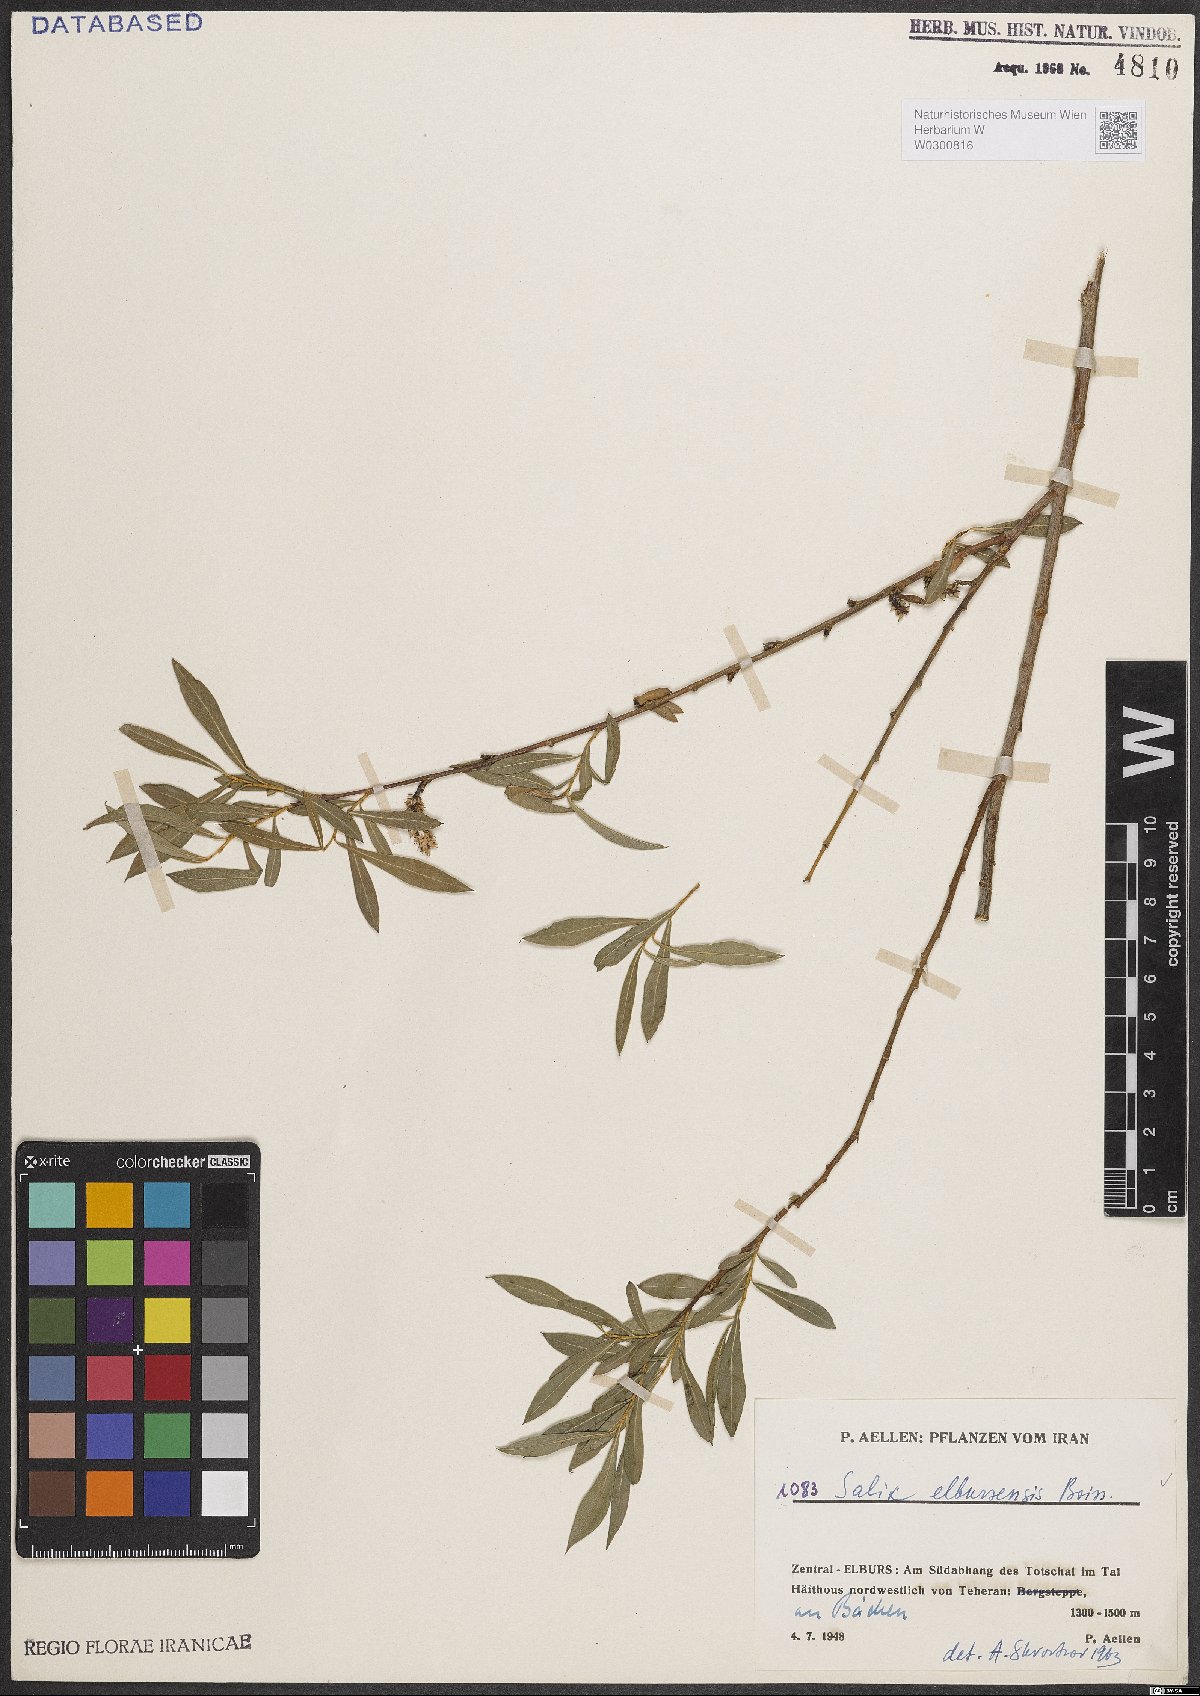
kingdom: Plantae
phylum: Tracheophyta
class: Magnoliopsida
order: Malpighiales
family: Salicaceae
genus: Salix
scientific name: Salix elbursensis
